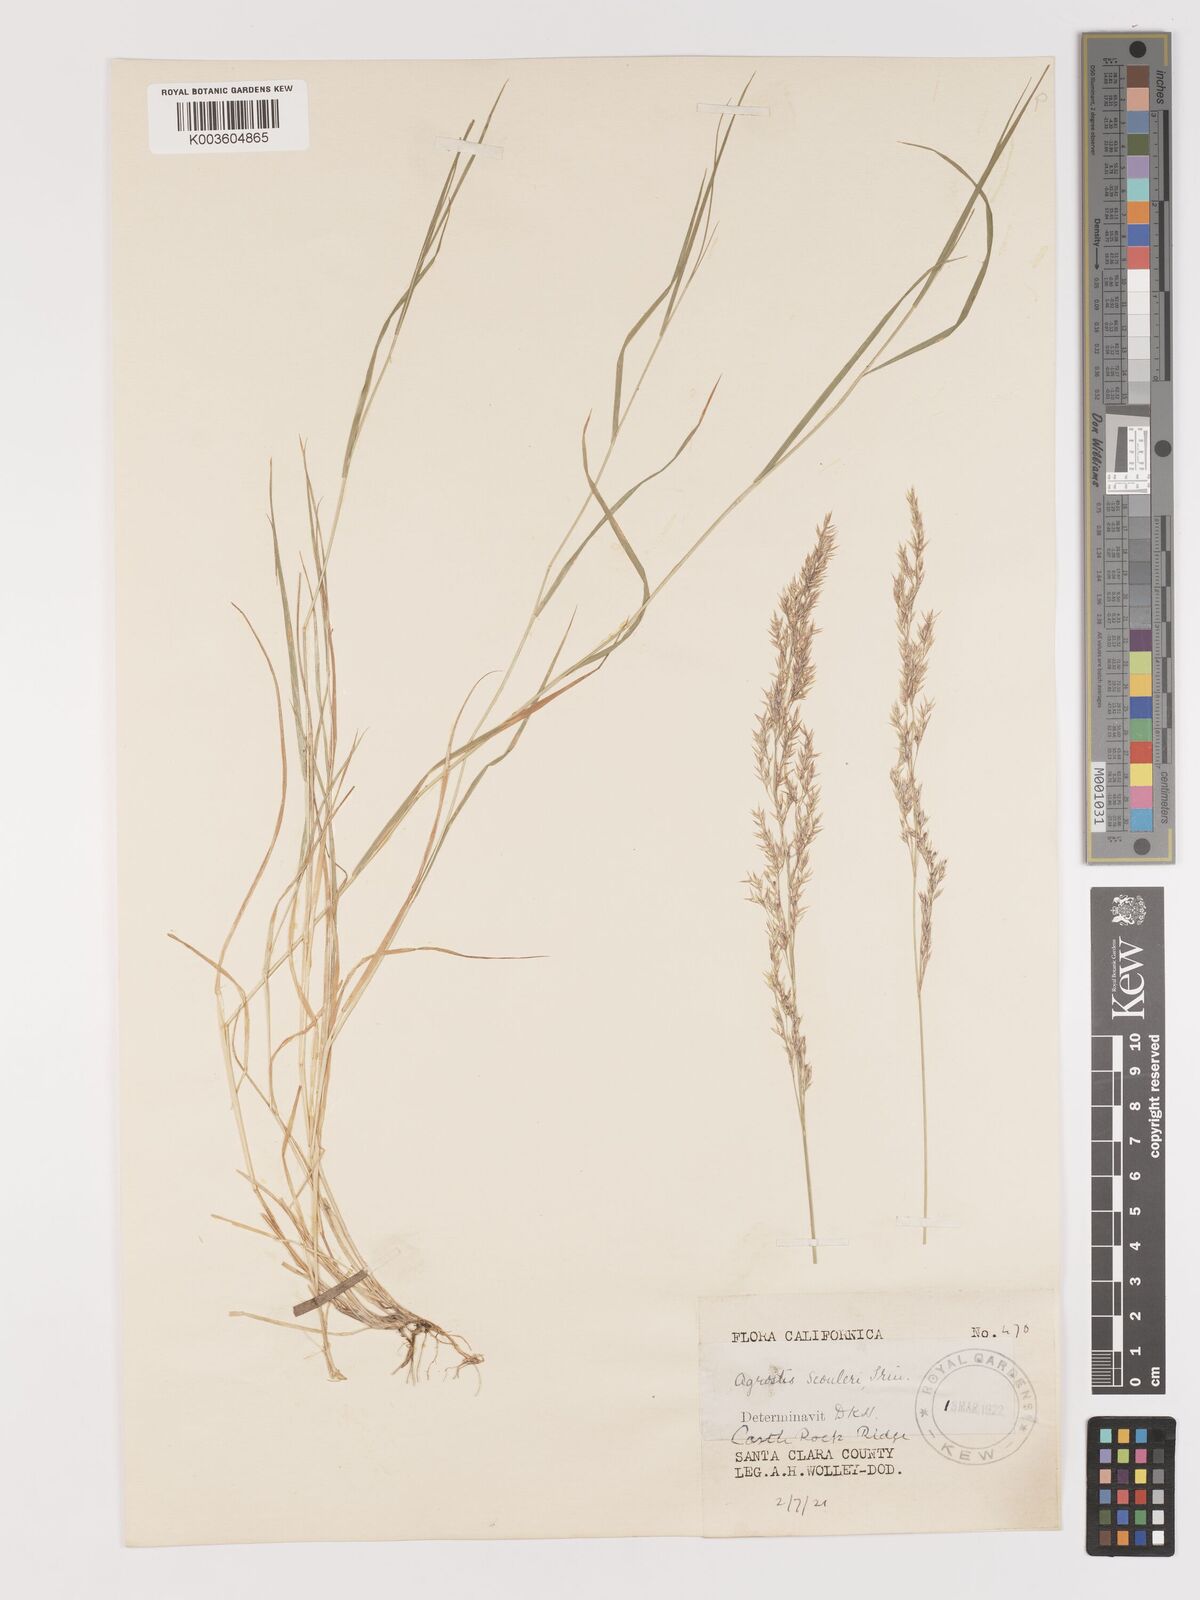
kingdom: Plantae
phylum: Tracheophyta
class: Liliopsida
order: Poales
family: Poaceae
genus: Agrostis
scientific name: Agrostis
